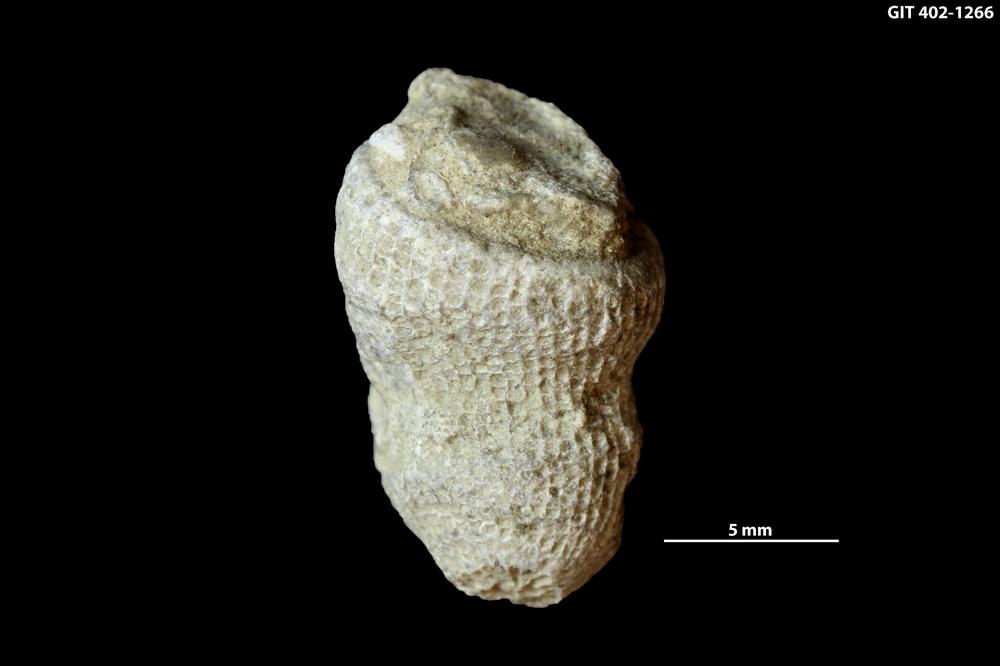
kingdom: Animalia
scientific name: Animalia
